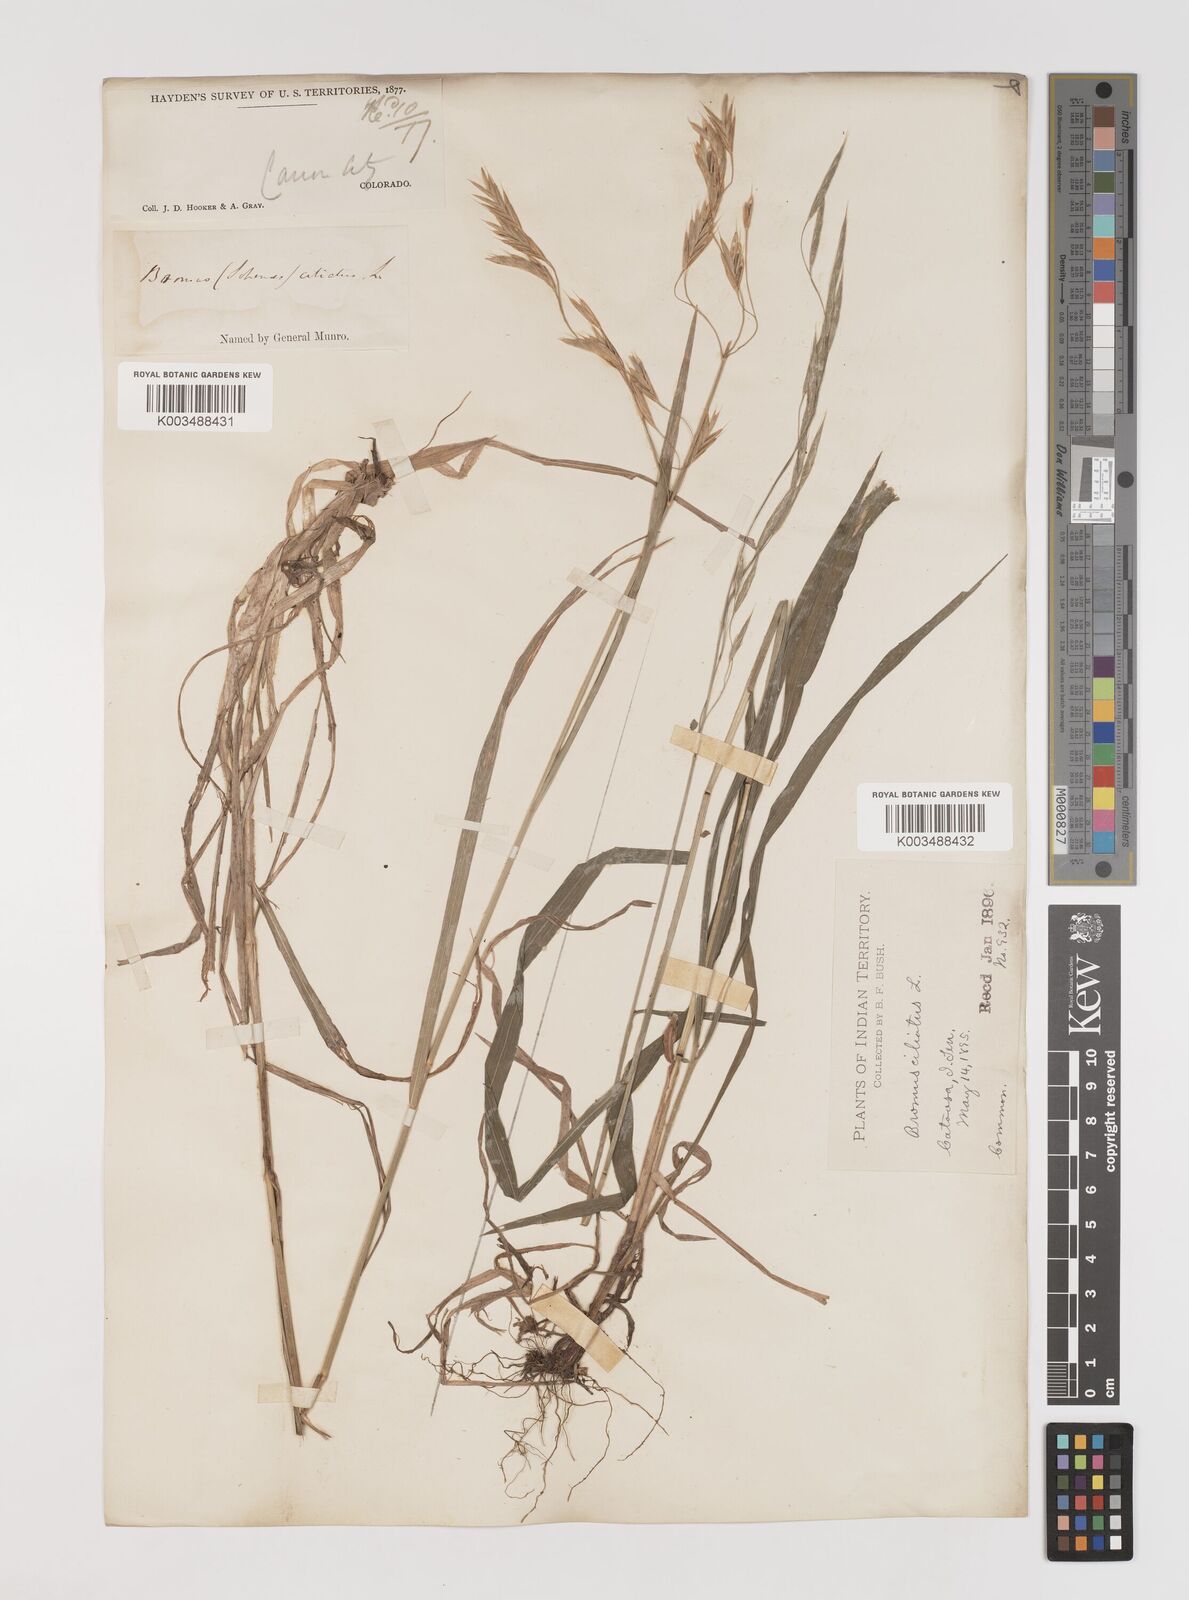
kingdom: Plantae
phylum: Tracheophyta
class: Liliopsida
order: Poales
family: Poaceae
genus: Bromus
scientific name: Bromus ciliatus
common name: Fringe brome
